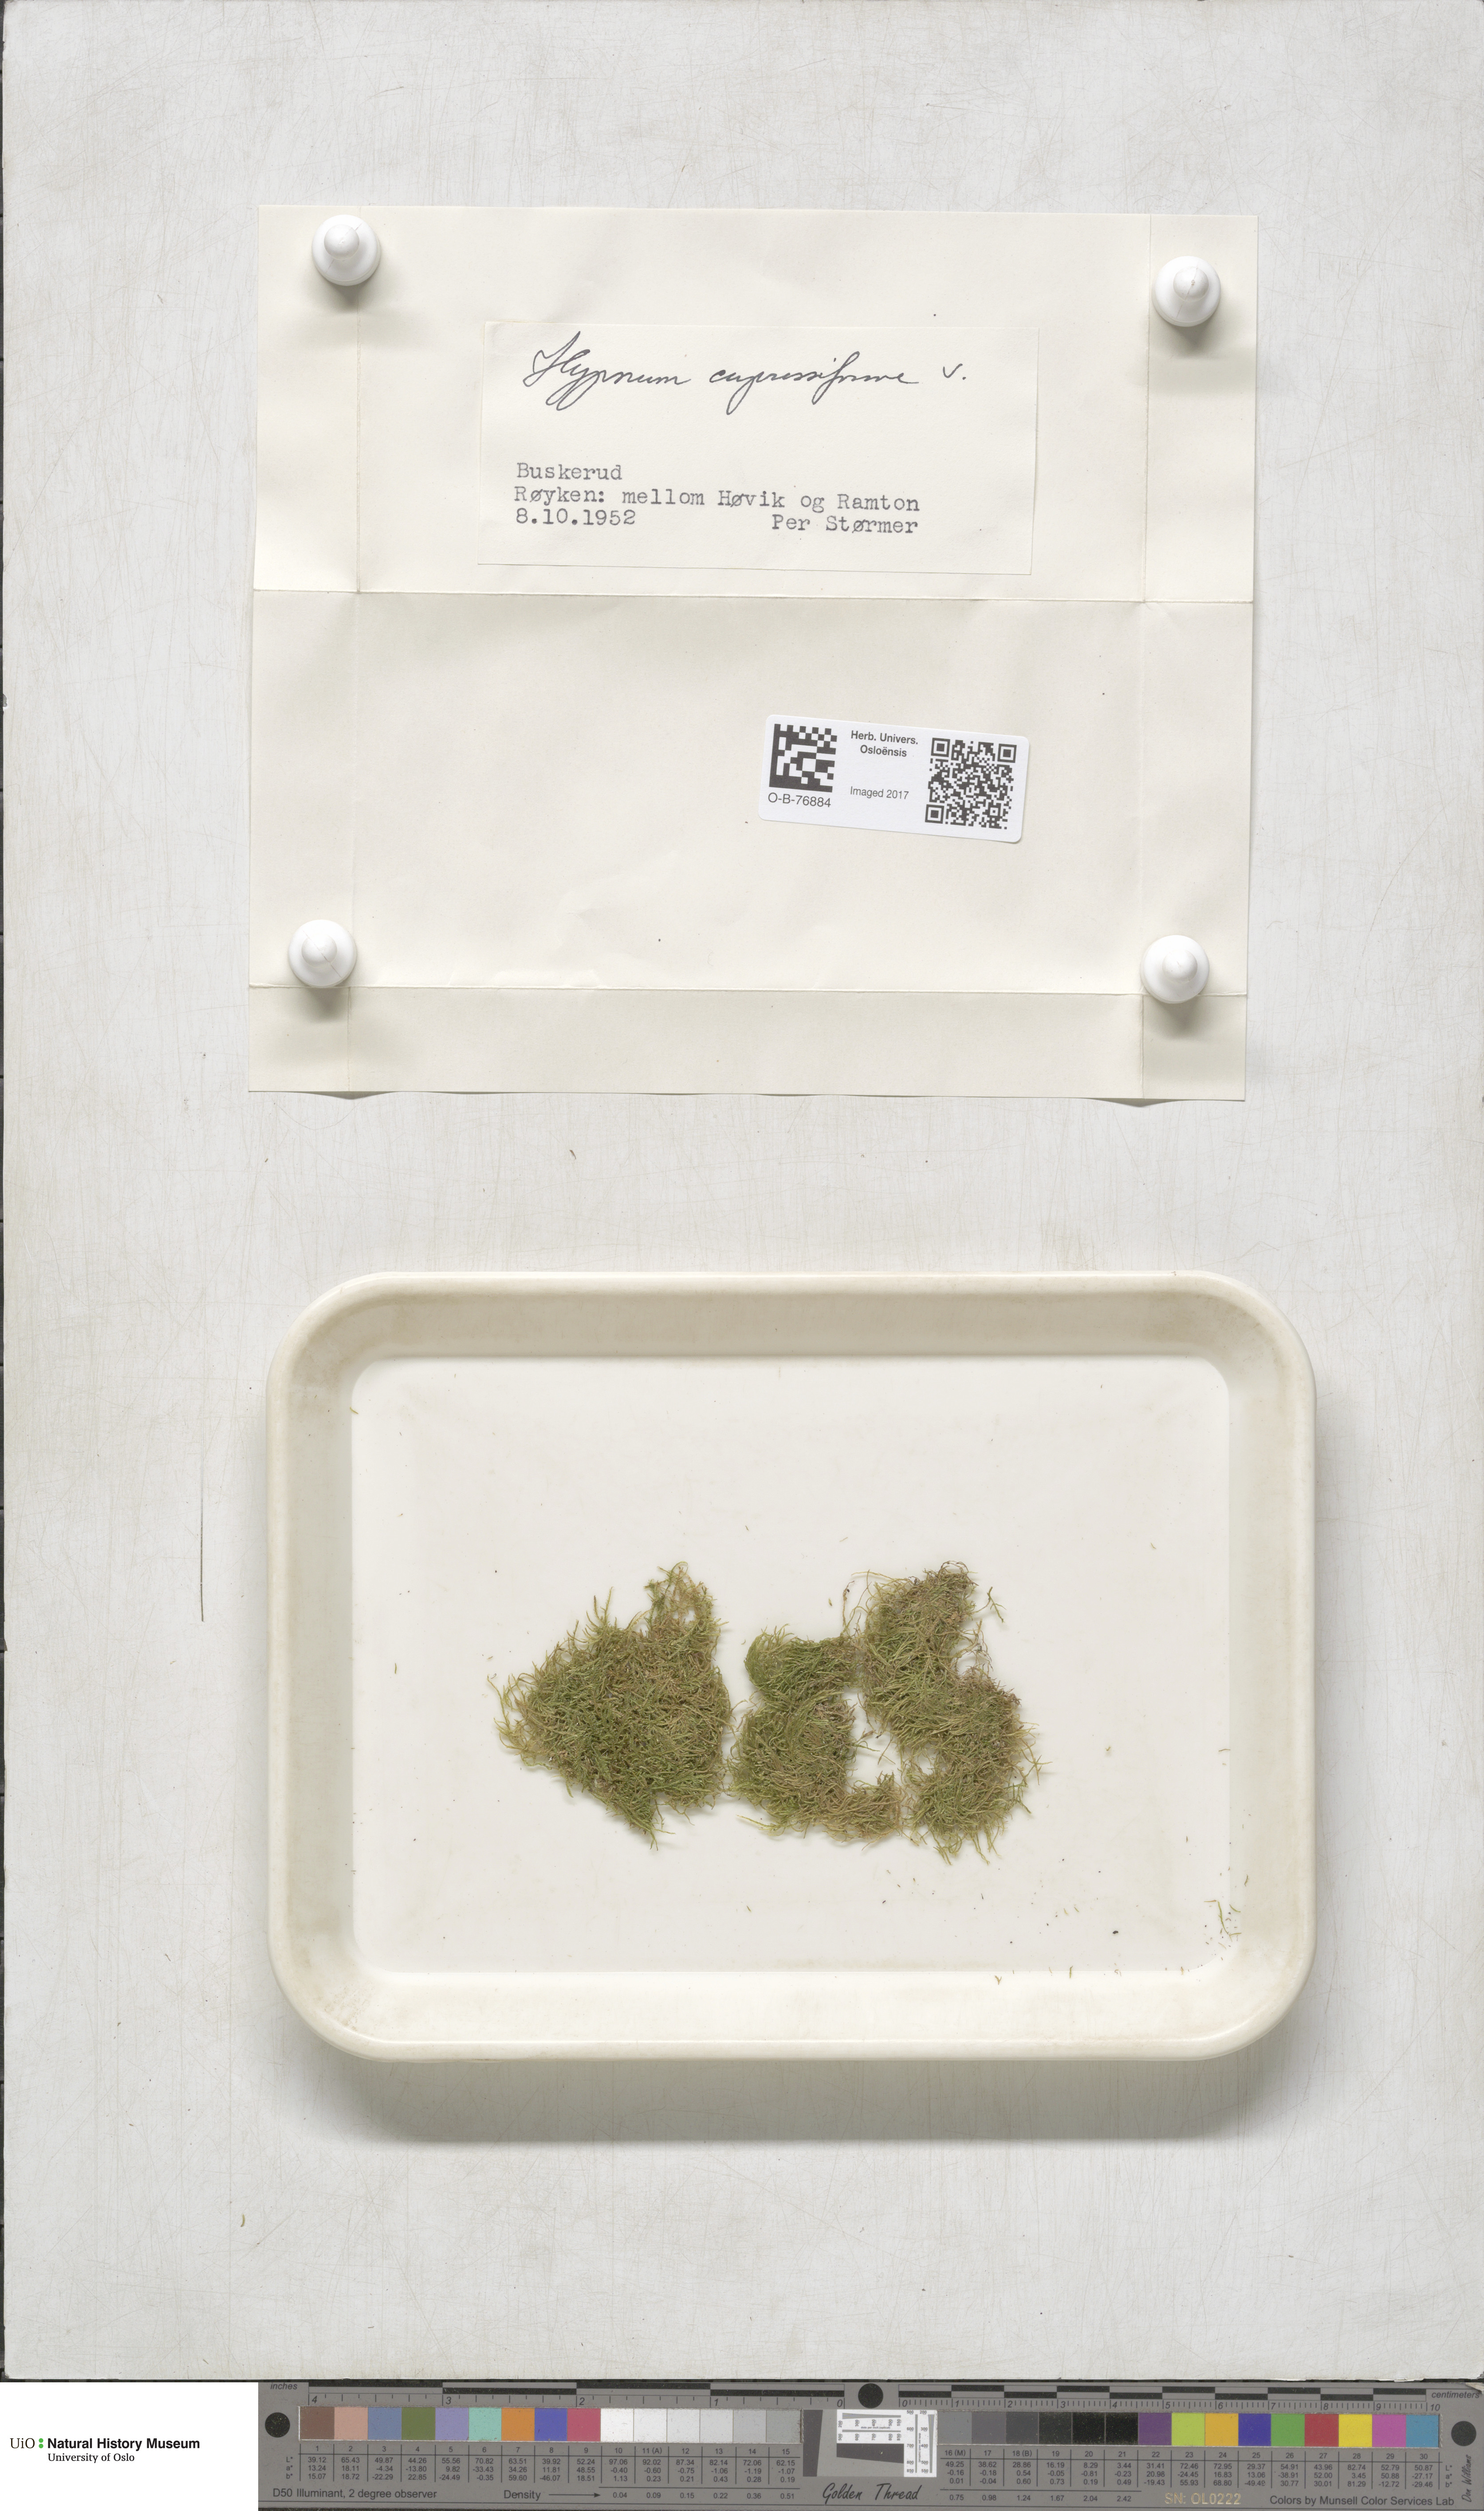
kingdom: Plantae
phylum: Bryophyta
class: Bryopsida
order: Hypnales
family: Hypnaceae
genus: Hypnum
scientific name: Hypnum cupressiforme
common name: Cypress-leaved plait-moss
